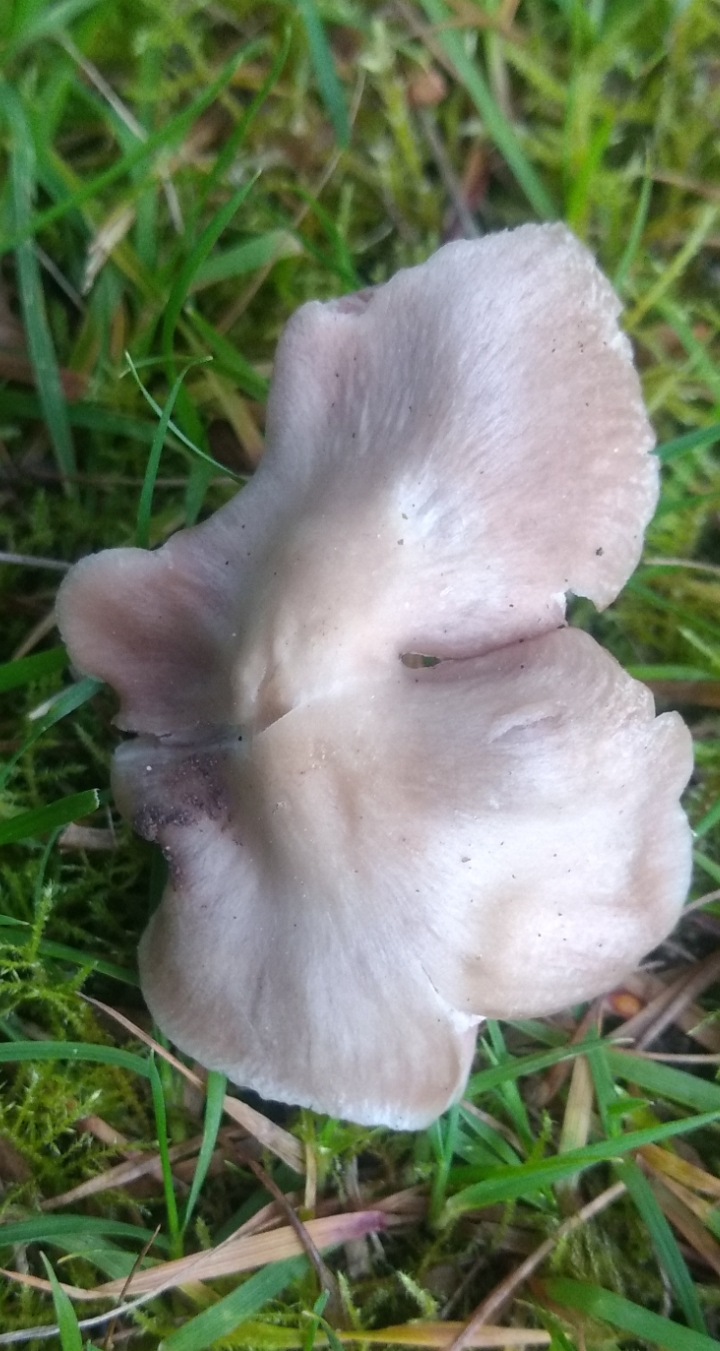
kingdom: Fungi
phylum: Basidiomycota
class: Agaricomycetes
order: Agaricales
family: Entolomataceae
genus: Entoloma
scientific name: Entoloma lividoalbum
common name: lysstokket rødblad
